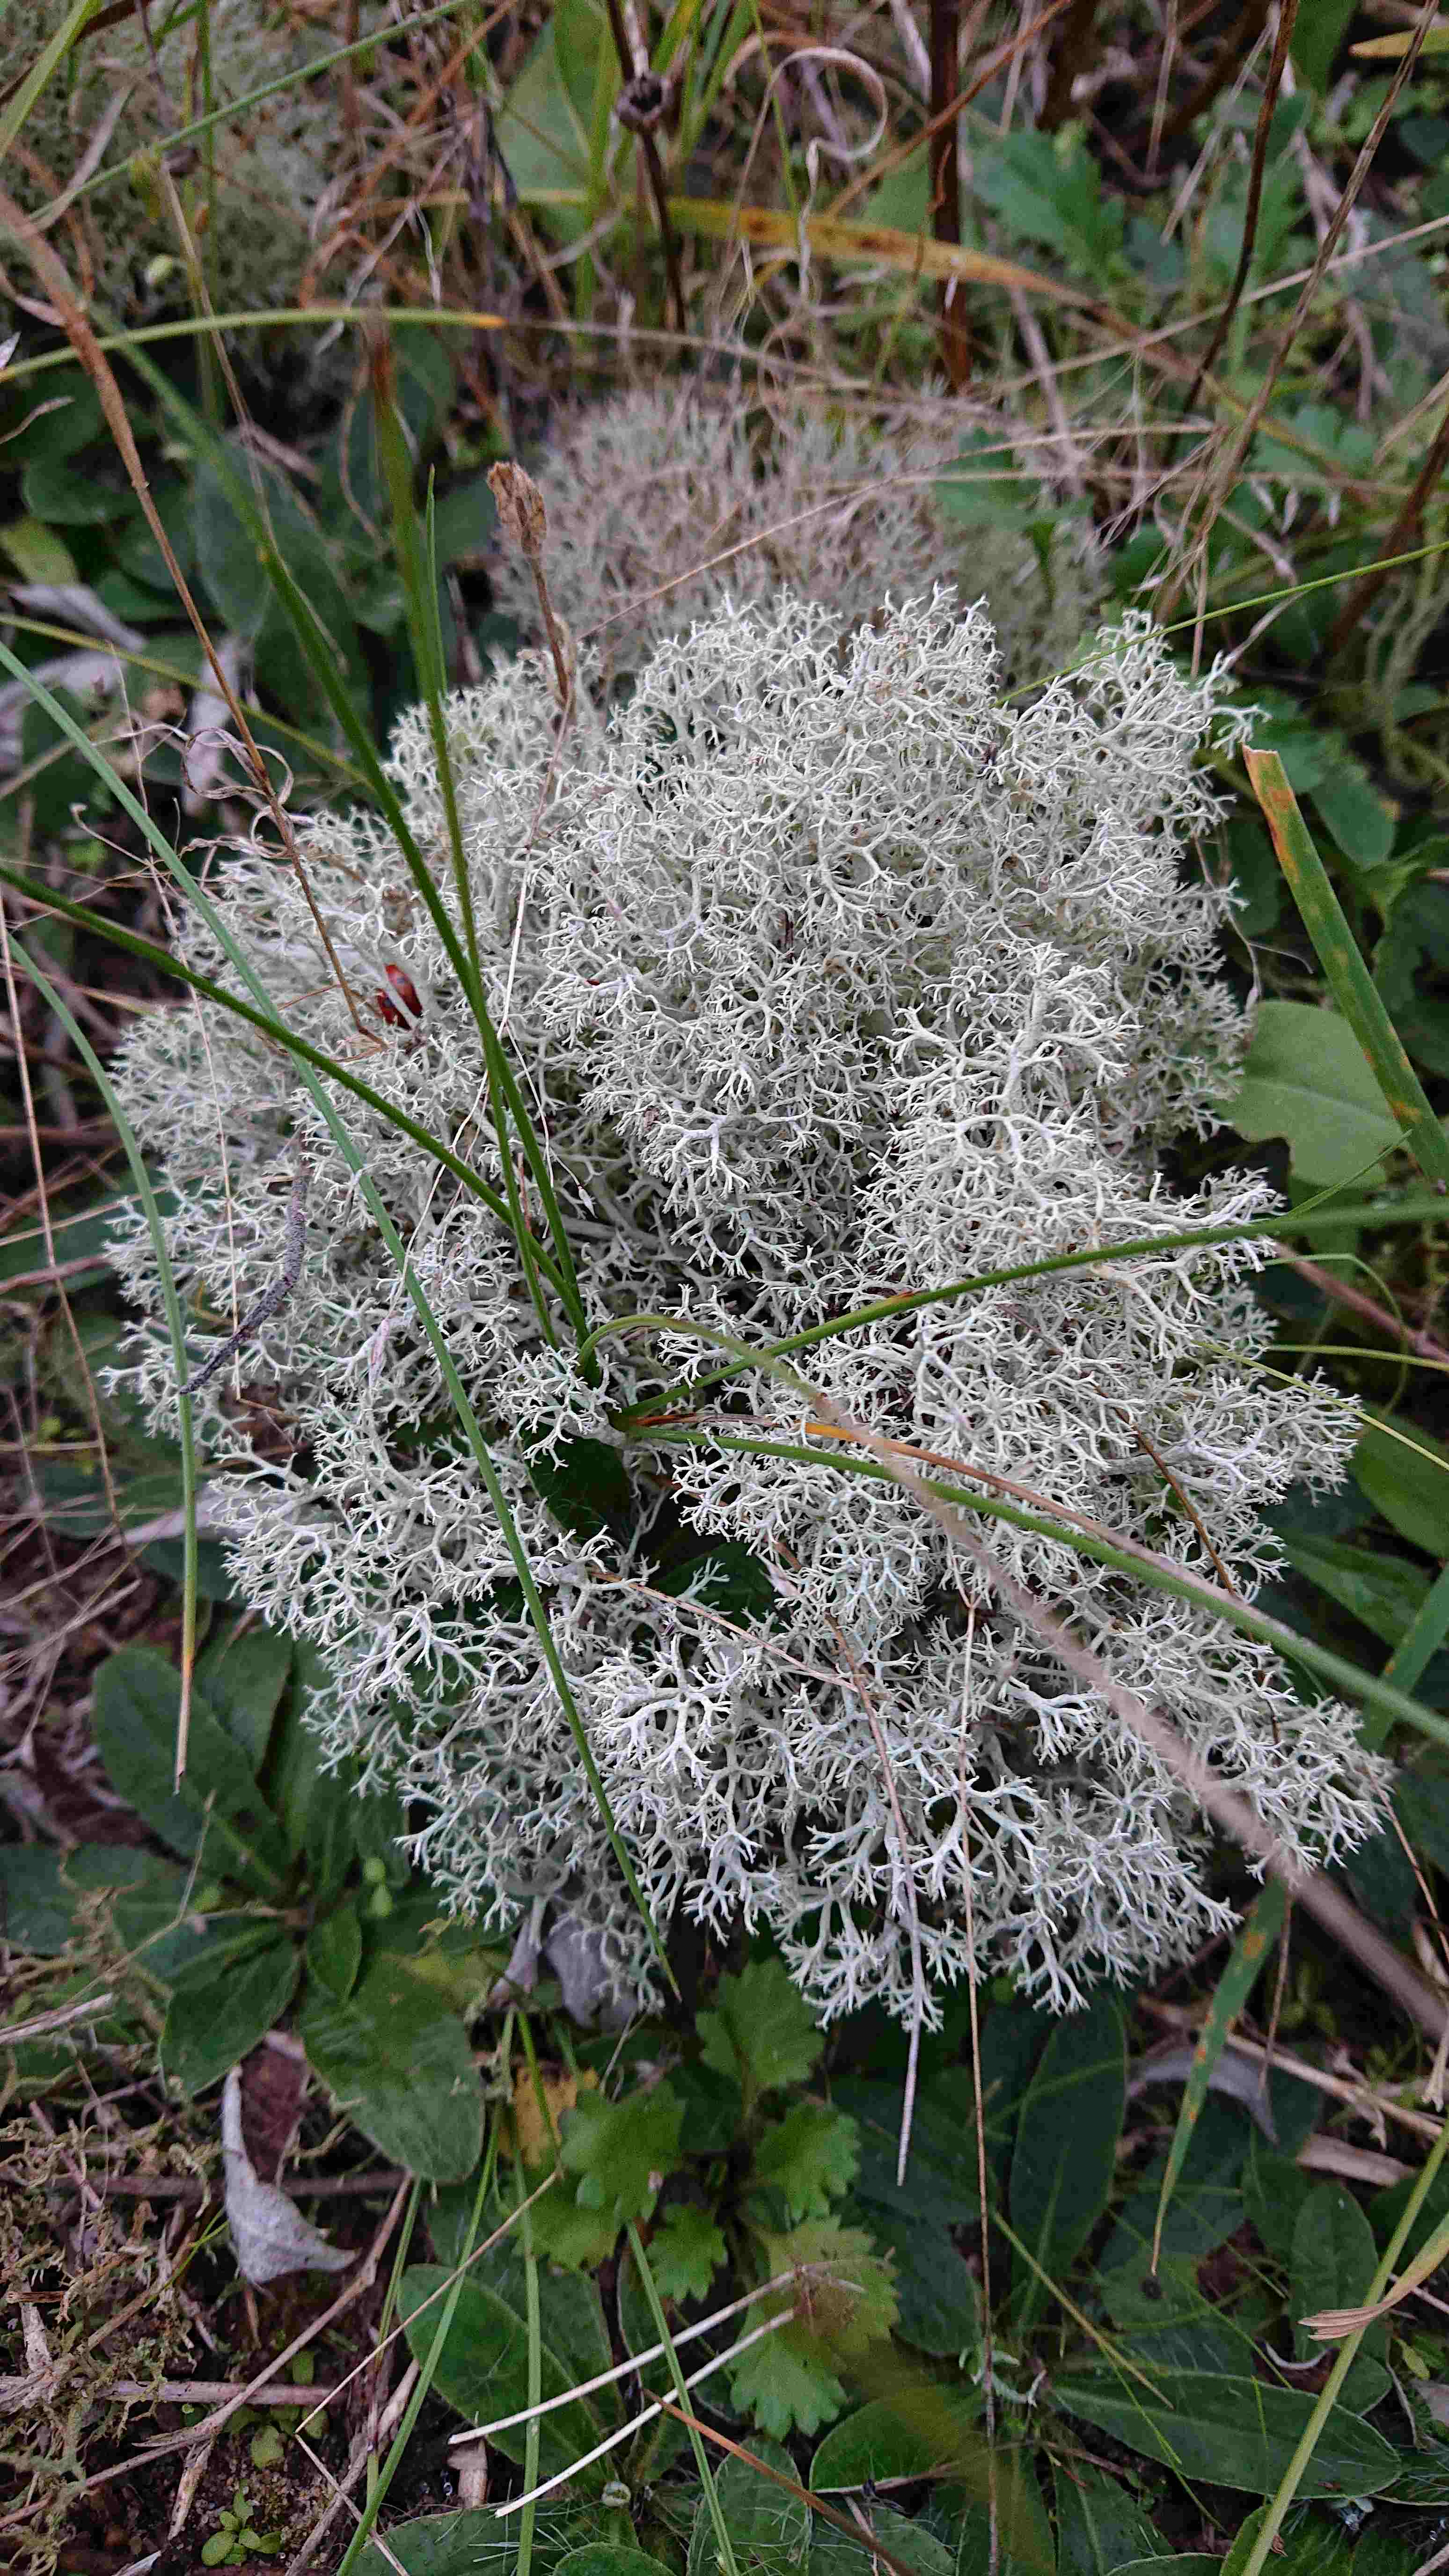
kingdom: Fungi
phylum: Ascomycota
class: Lecanoromycetes
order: Lecanorales
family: Cladoniaceae
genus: Cladonia
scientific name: Cladonia portentosa
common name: hede-rensdyrlav
